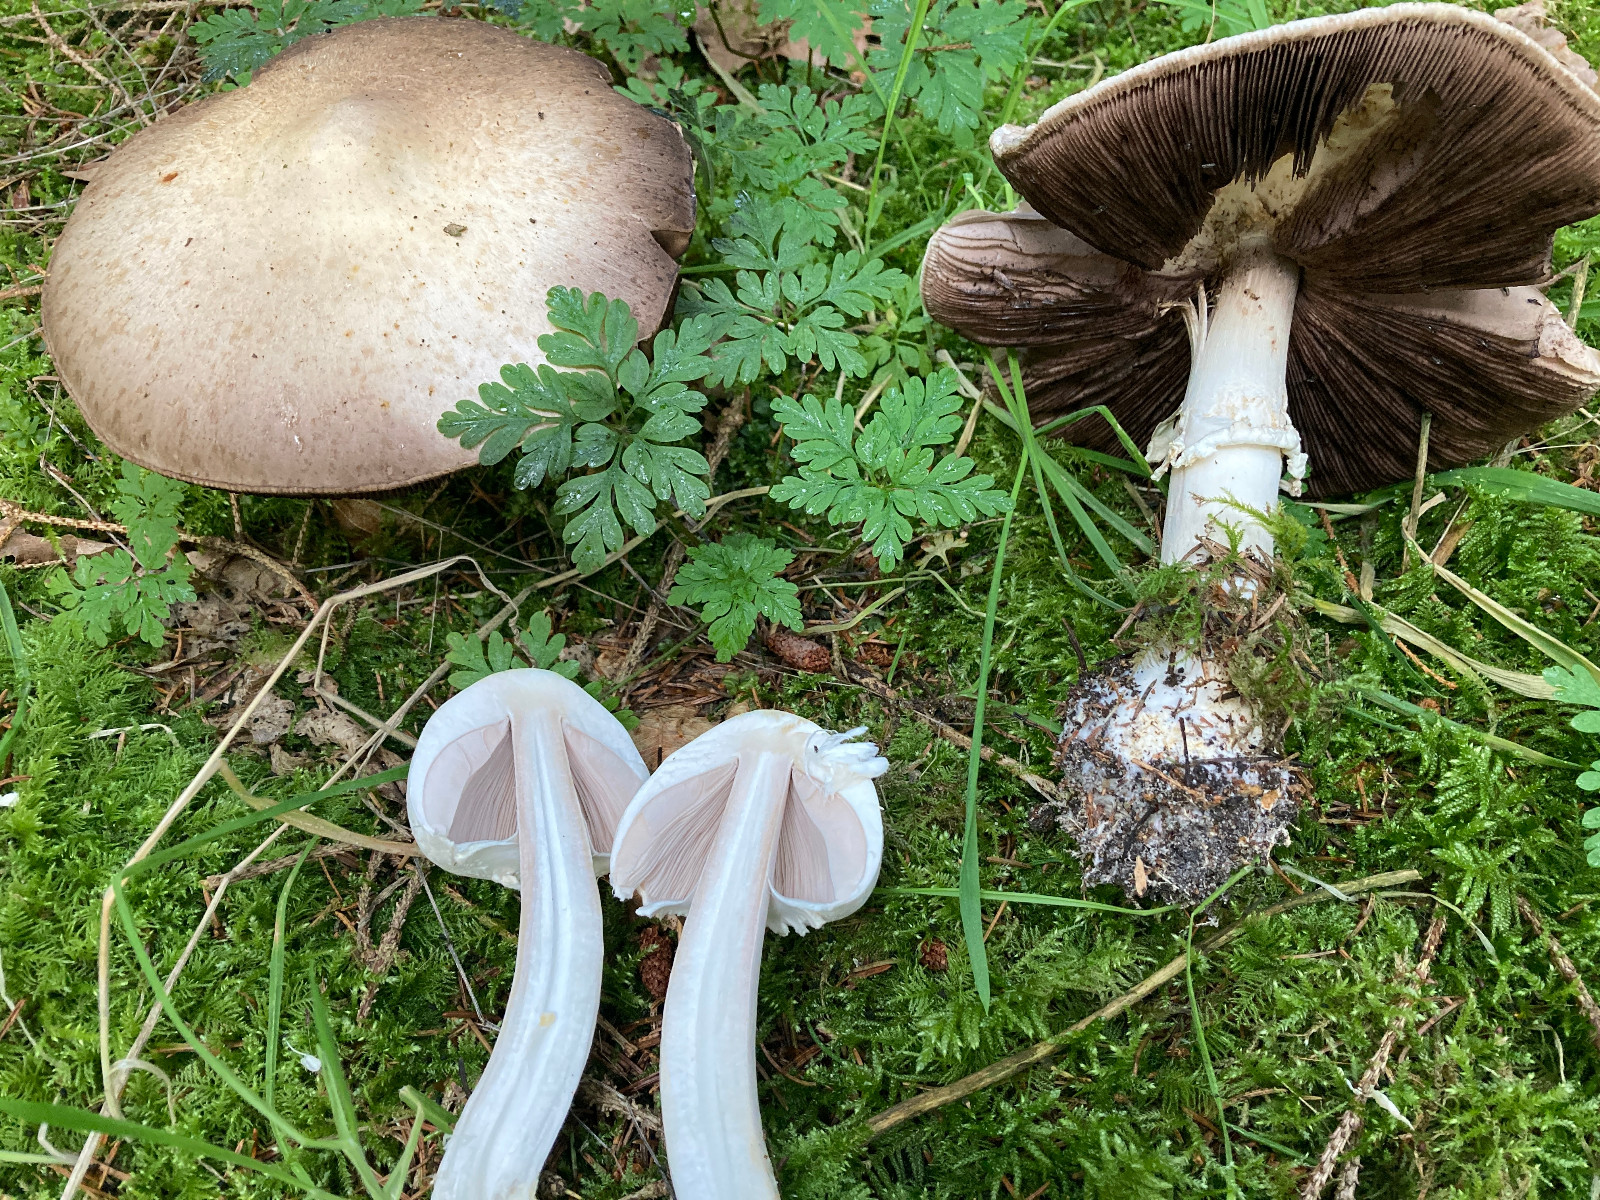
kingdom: Fungi
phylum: Basidiomycota
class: Agaricomycetes
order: Agaricales
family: Agaricaceae
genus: Agaricus
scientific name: Agaricus
